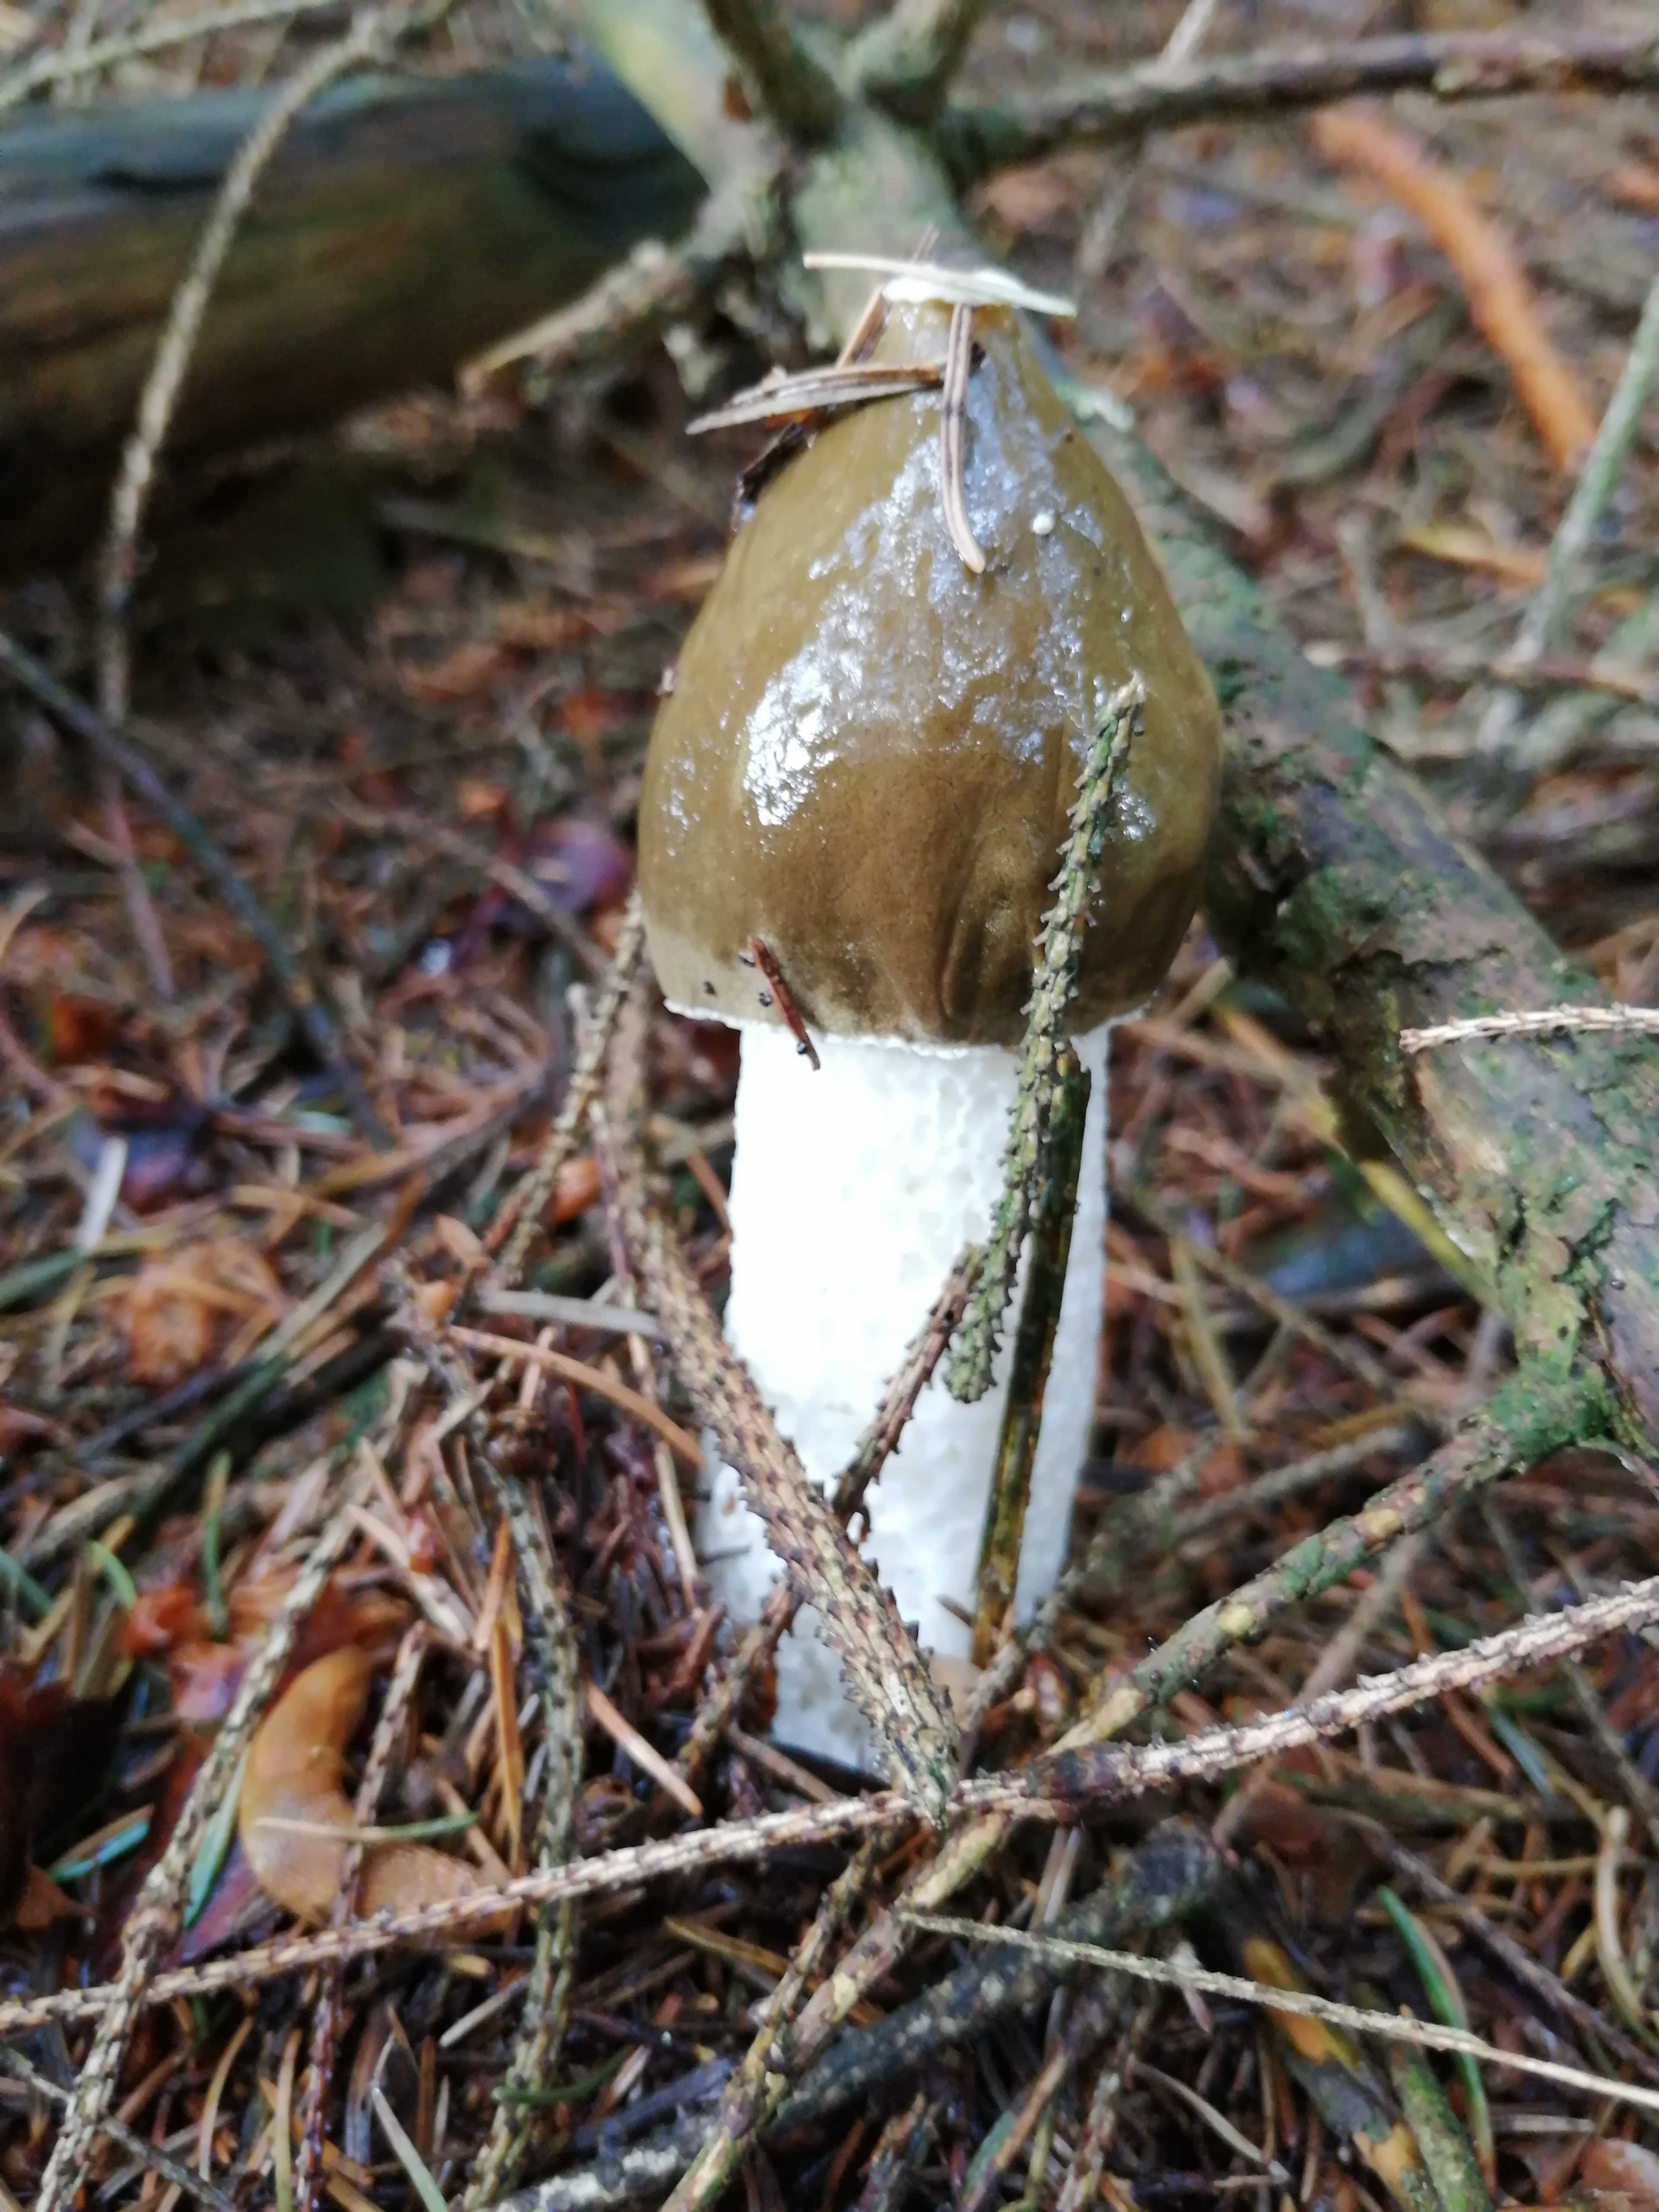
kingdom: Fungi
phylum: Basidiomycota
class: Agaricomycetes
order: Phallales
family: Phallaceae
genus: Phallus
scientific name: Phallus impudicus
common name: almindelig stinksvamp
